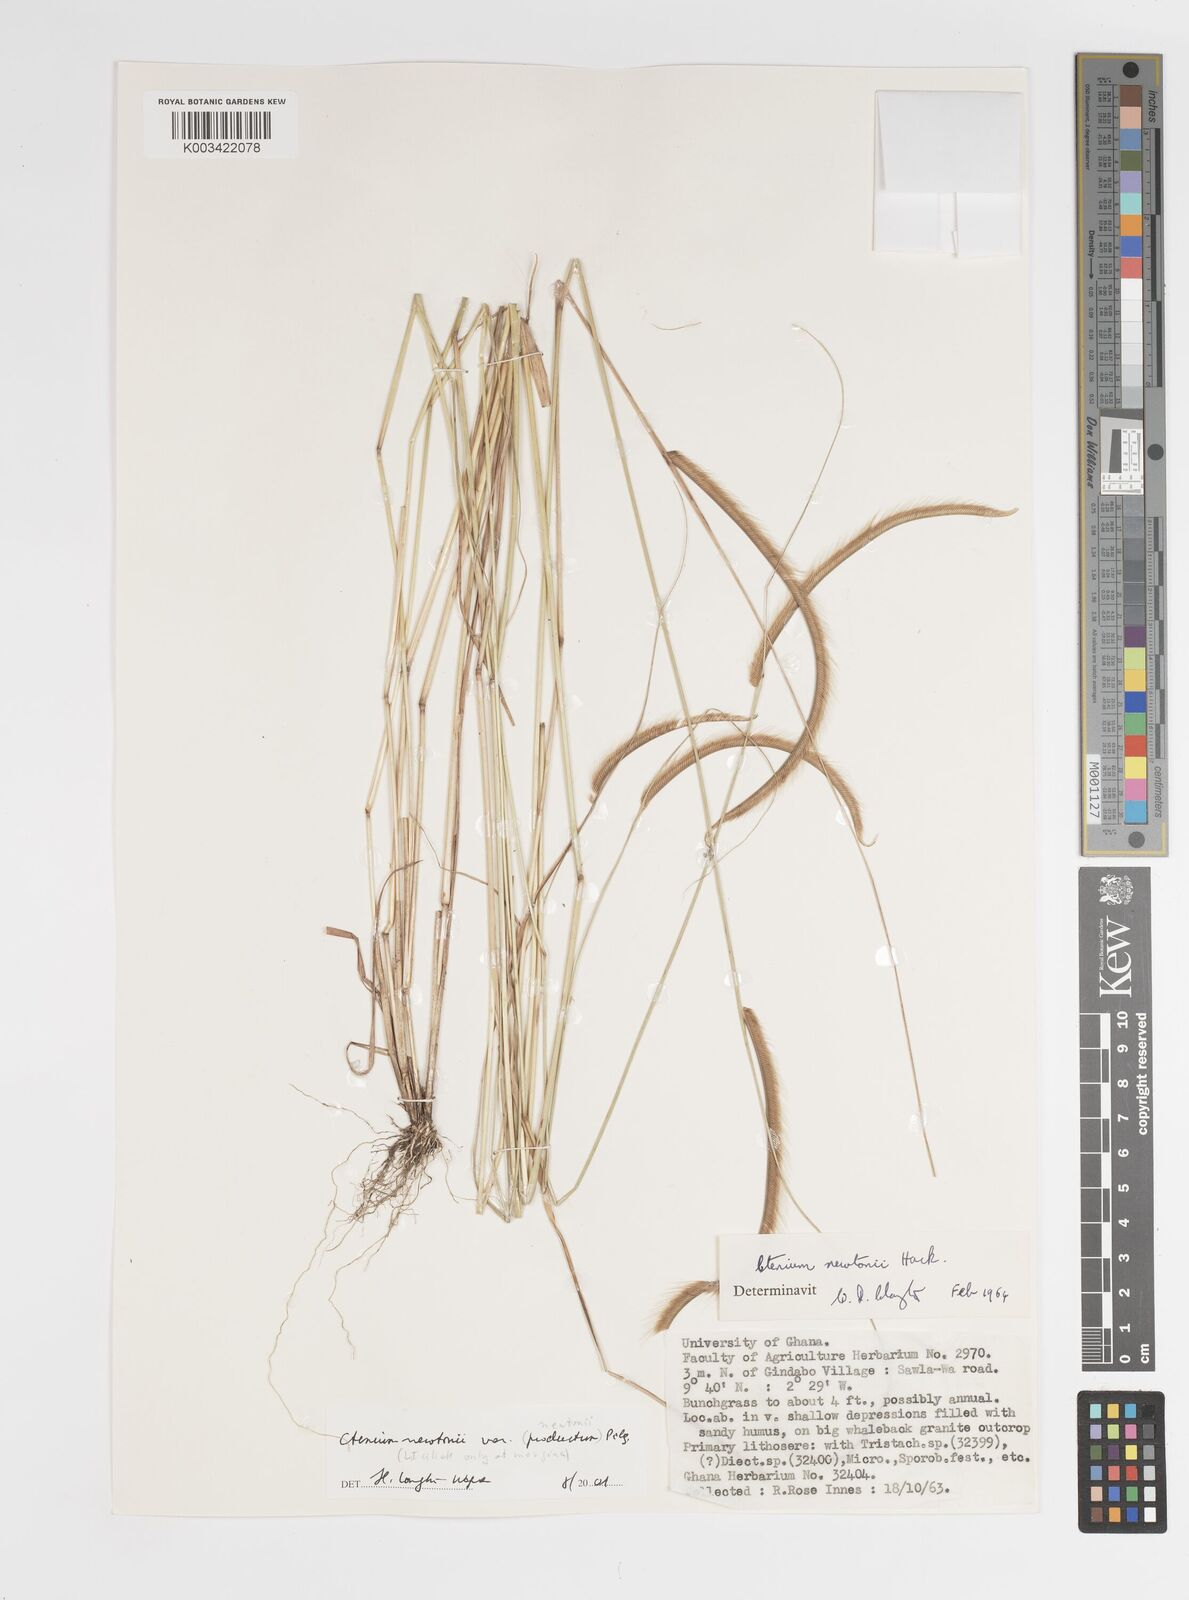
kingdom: Plantae
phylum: Tracheophyta
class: Liliopsida
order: Poales
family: Poaceae
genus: Ctenium
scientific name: Ctenium newtonii
